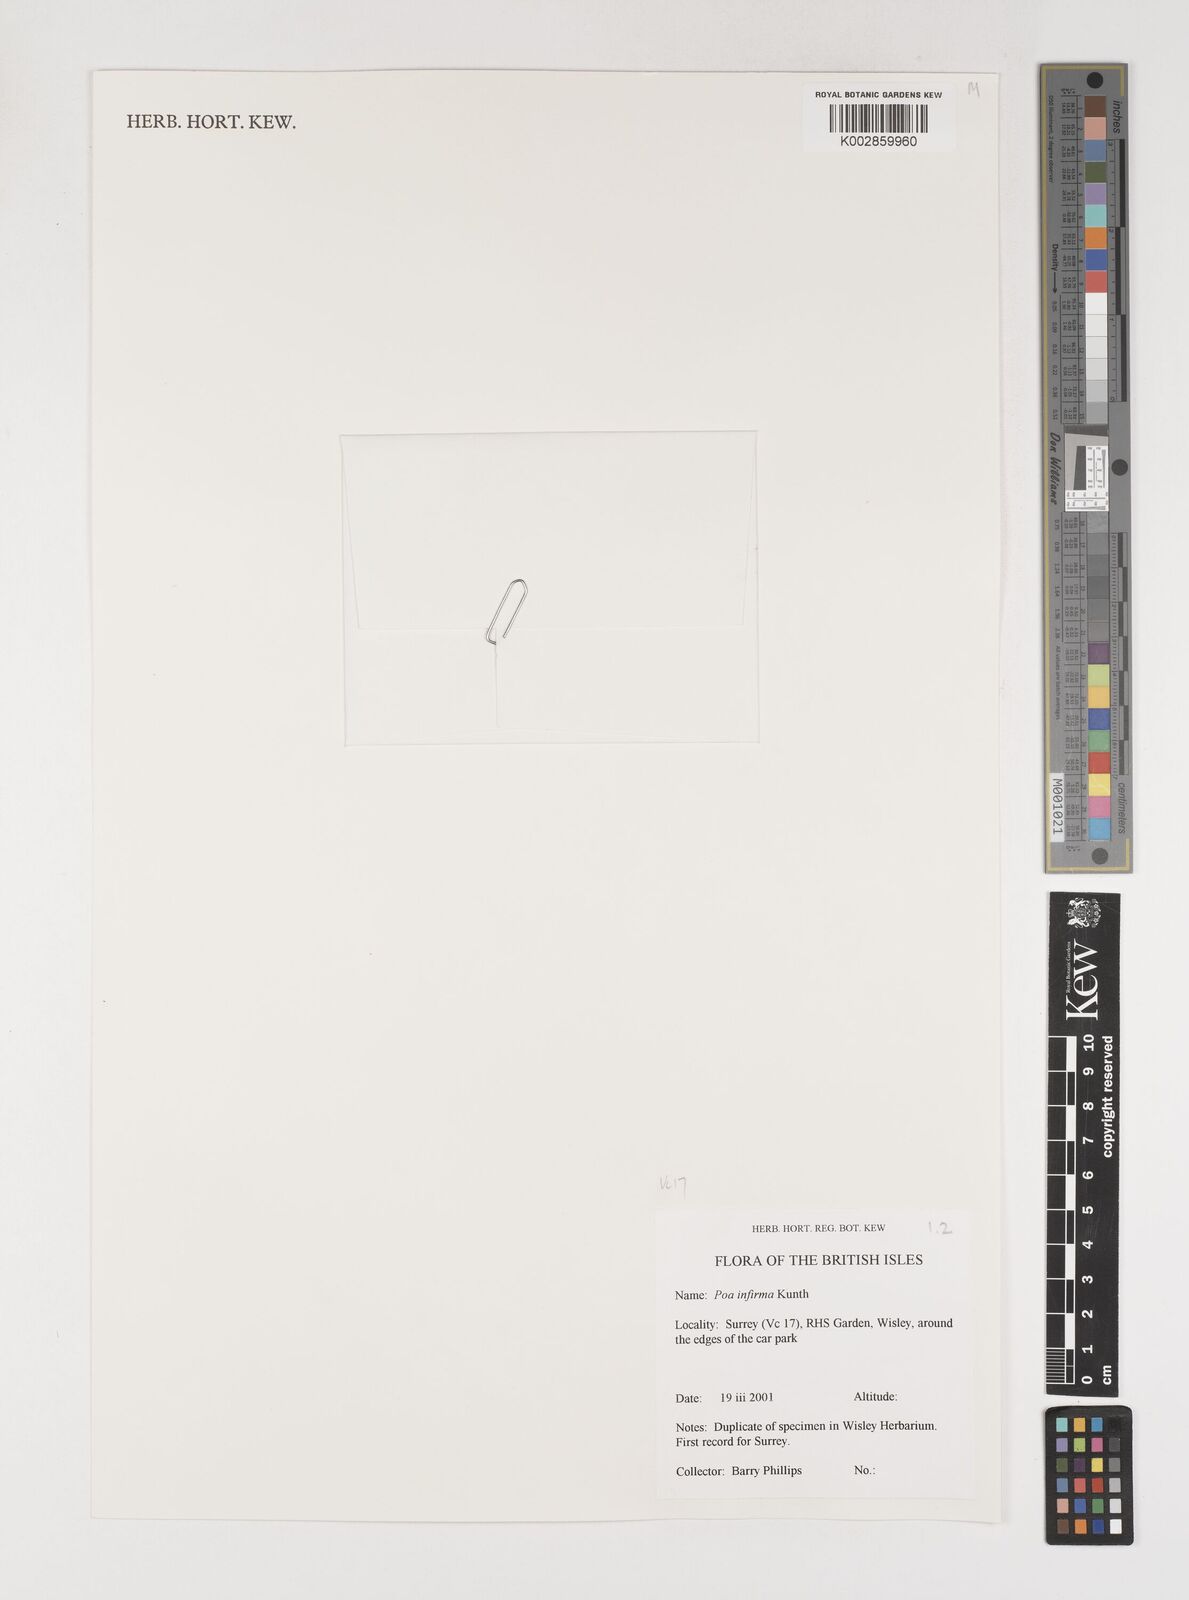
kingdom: Plantae
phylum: Tracheophyta
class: Liliopsida
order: Poales
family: Poaceae
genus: Poa
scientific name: Poa infirma
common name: Weak bluegrass
